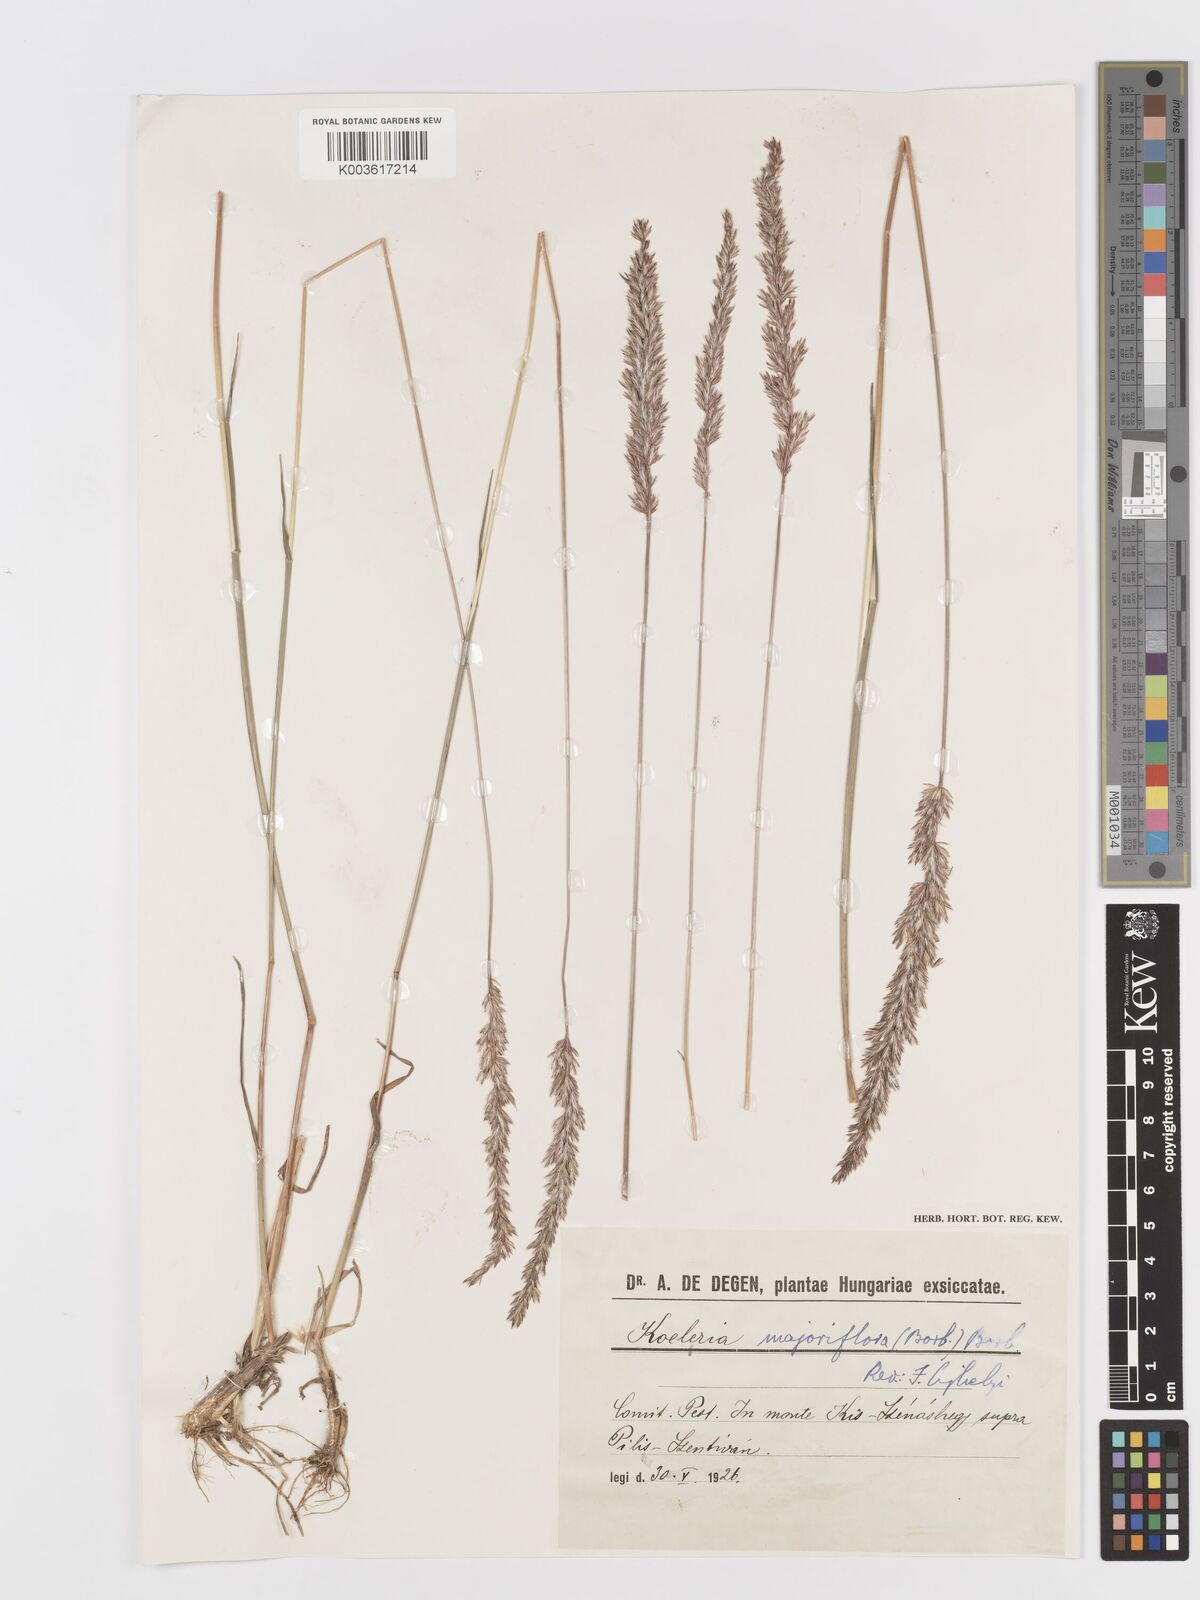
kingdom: Plantae
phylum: Tracheophyta
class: Liliopsida
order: Poales
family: Poaceae
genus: Koeleria
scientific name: Koeleria macrantha
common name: Crested hair-grass
